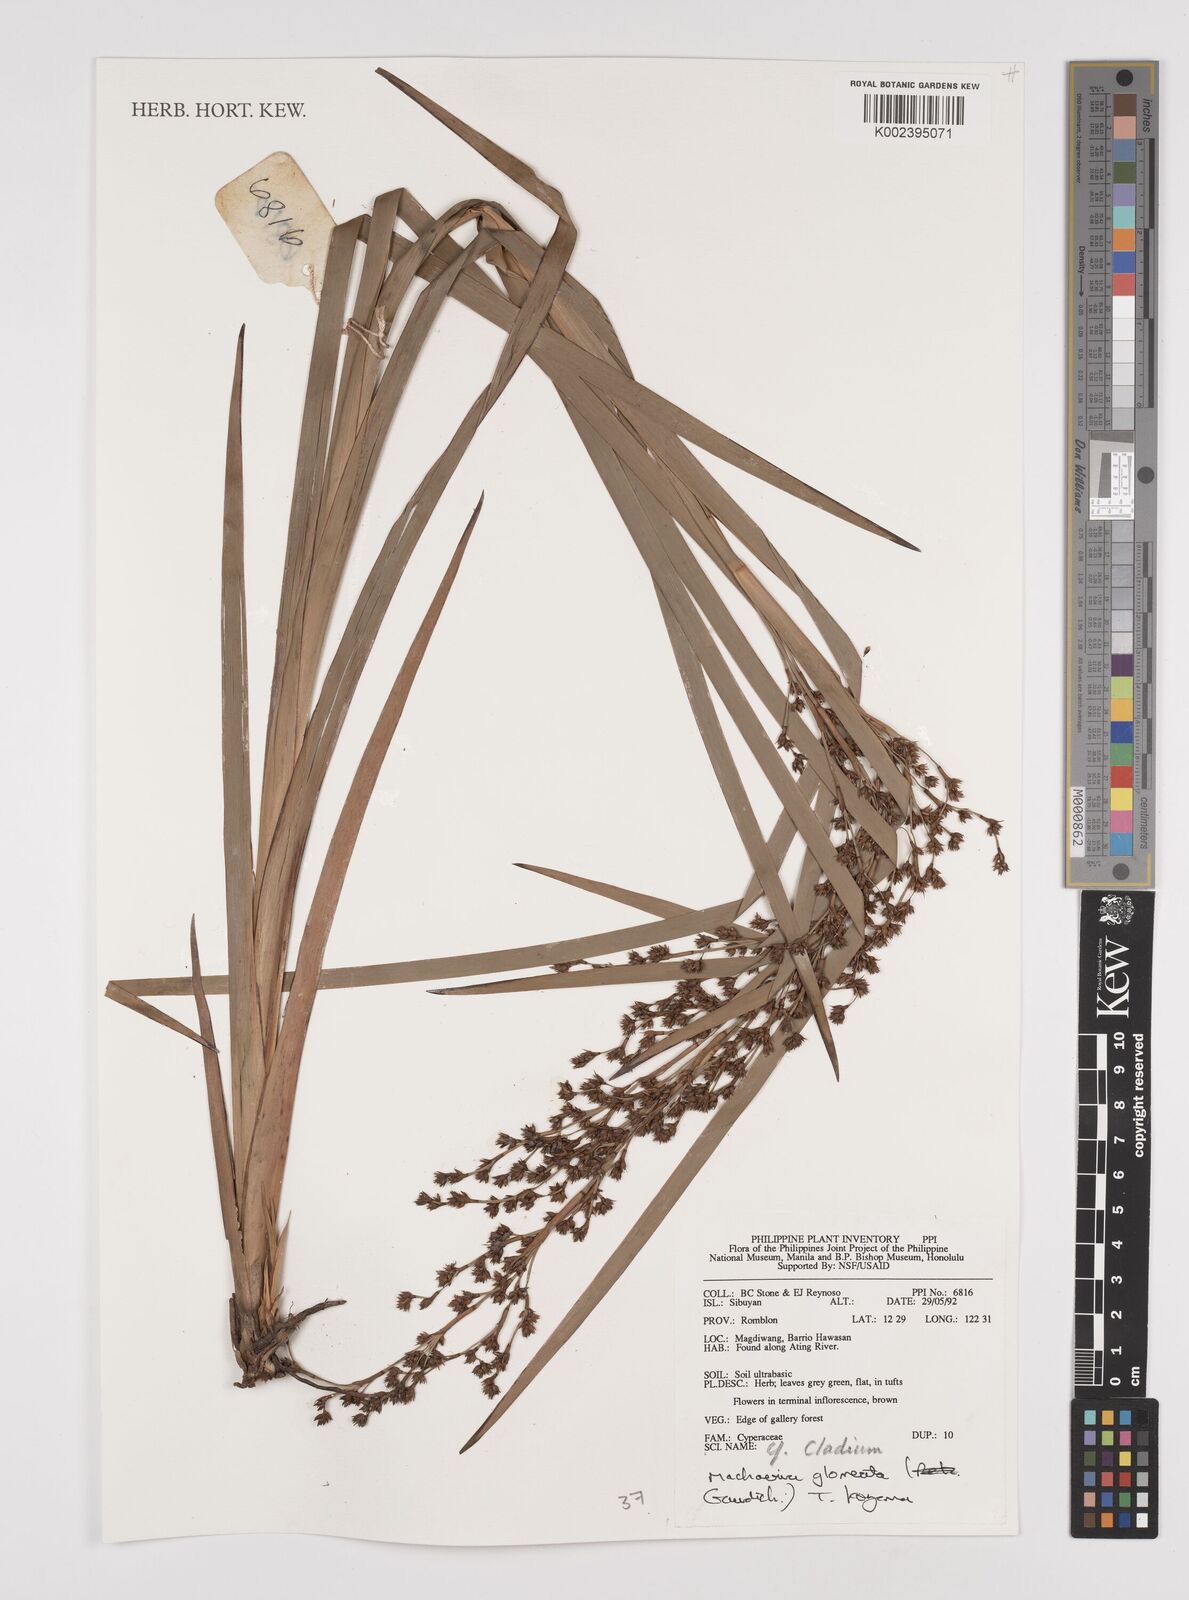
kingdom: Plantae
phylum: Tracheophyta
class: Liliopsida
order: Poales
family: Cyperaceae
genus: Machaerina
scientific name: Machaerina glomerata
